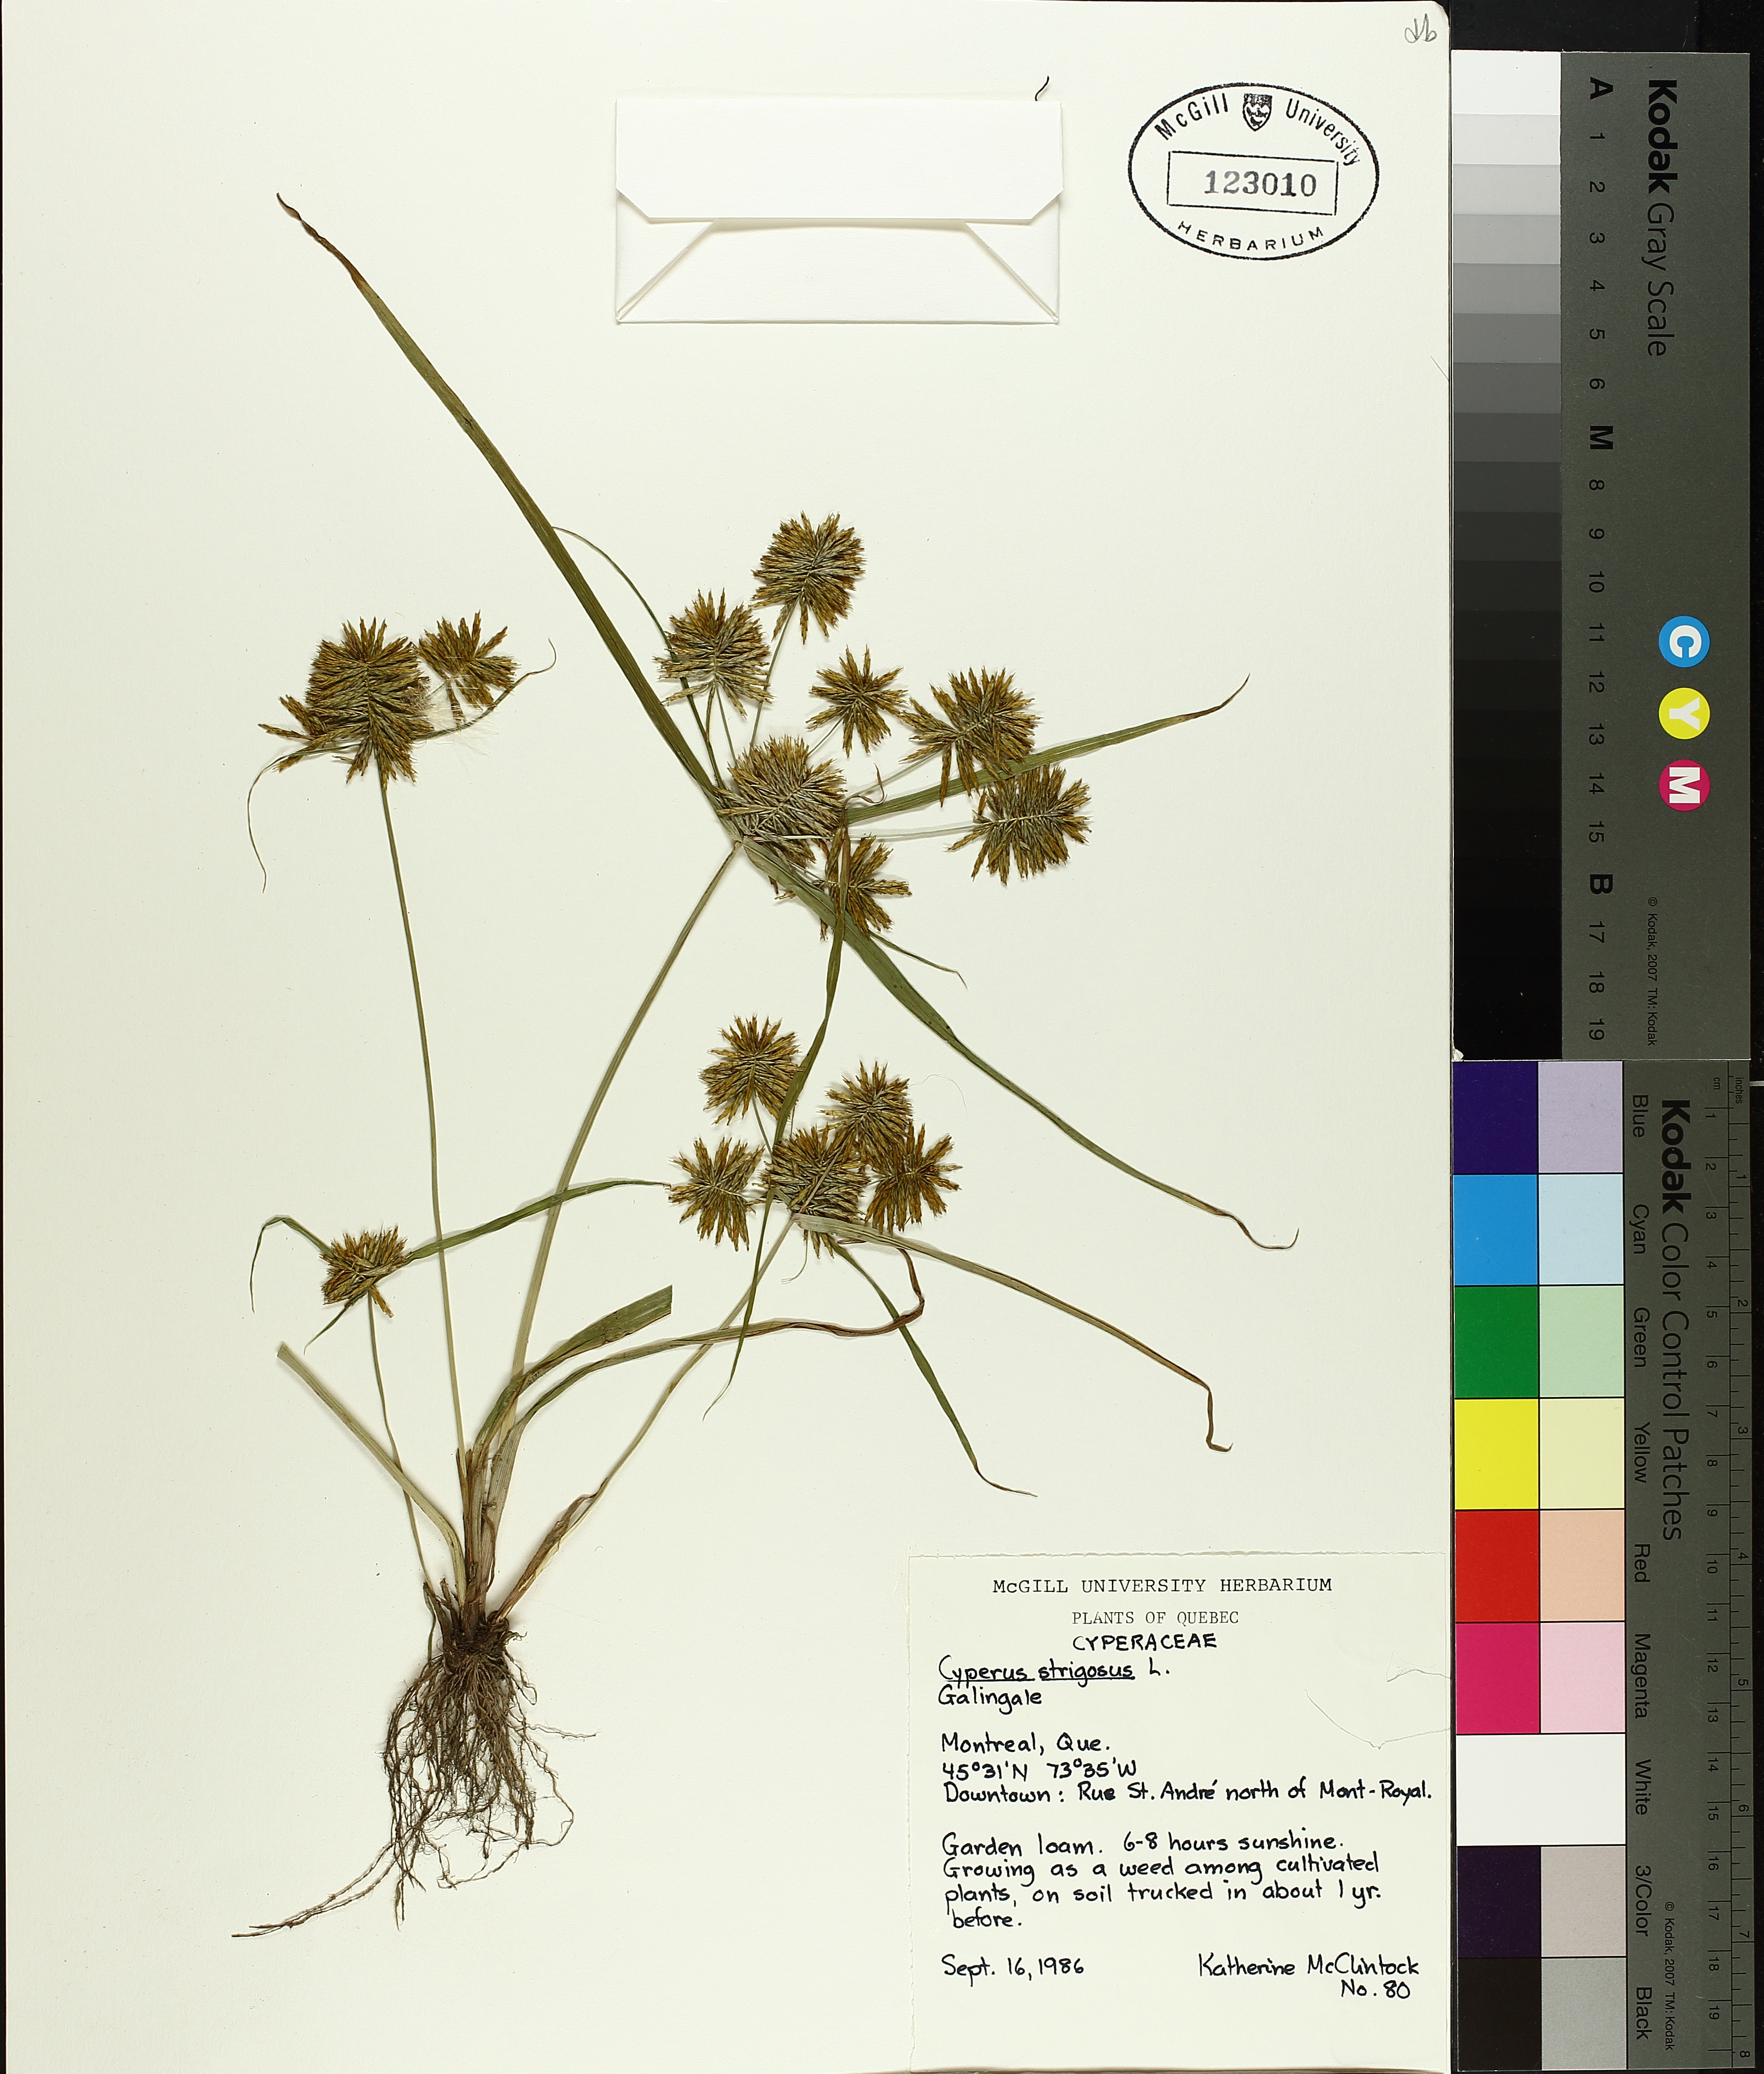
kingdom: Plantae
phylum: Tracheophyta
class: Liliopsida
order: Poales
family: Cyperaceae
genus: Cyperus
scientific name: Cyperus strigosus
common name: False nutsedge
